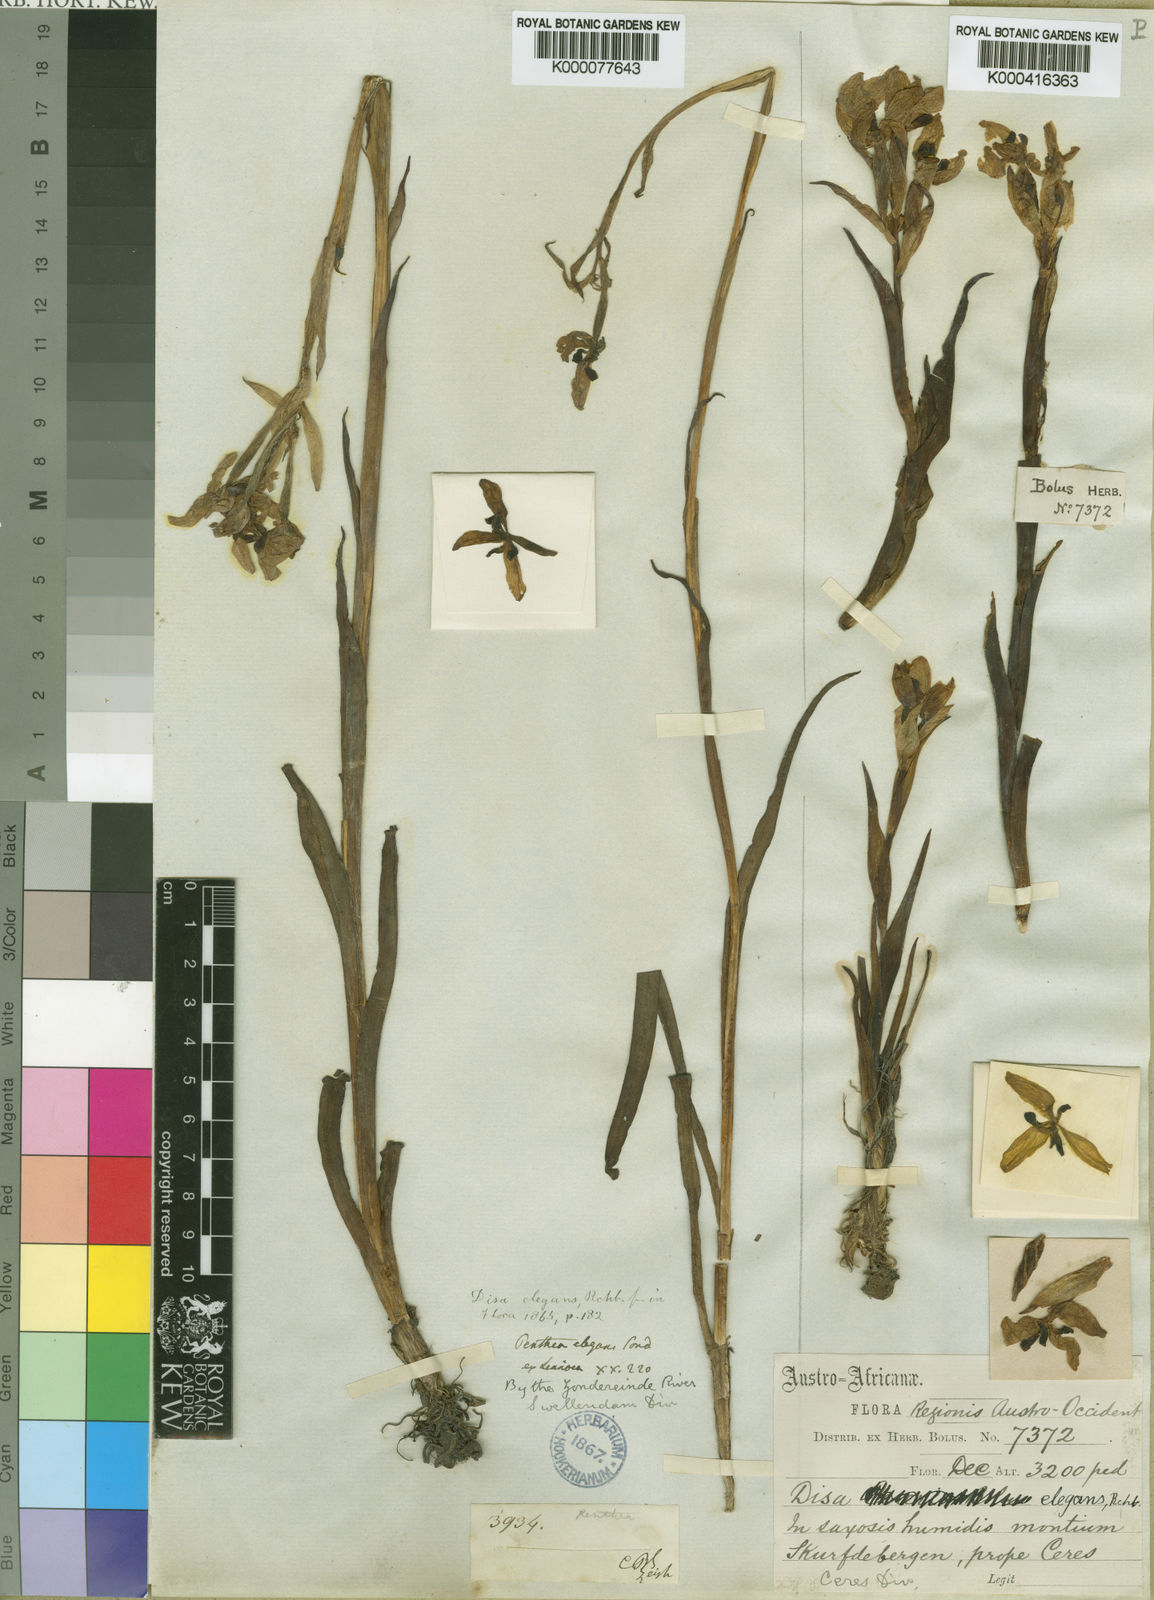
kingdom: Plantae
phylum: Tracheophyta
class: Liliopsida
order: Asparagales
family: Orchidaceae
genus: Disa
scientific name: Disa elegans
